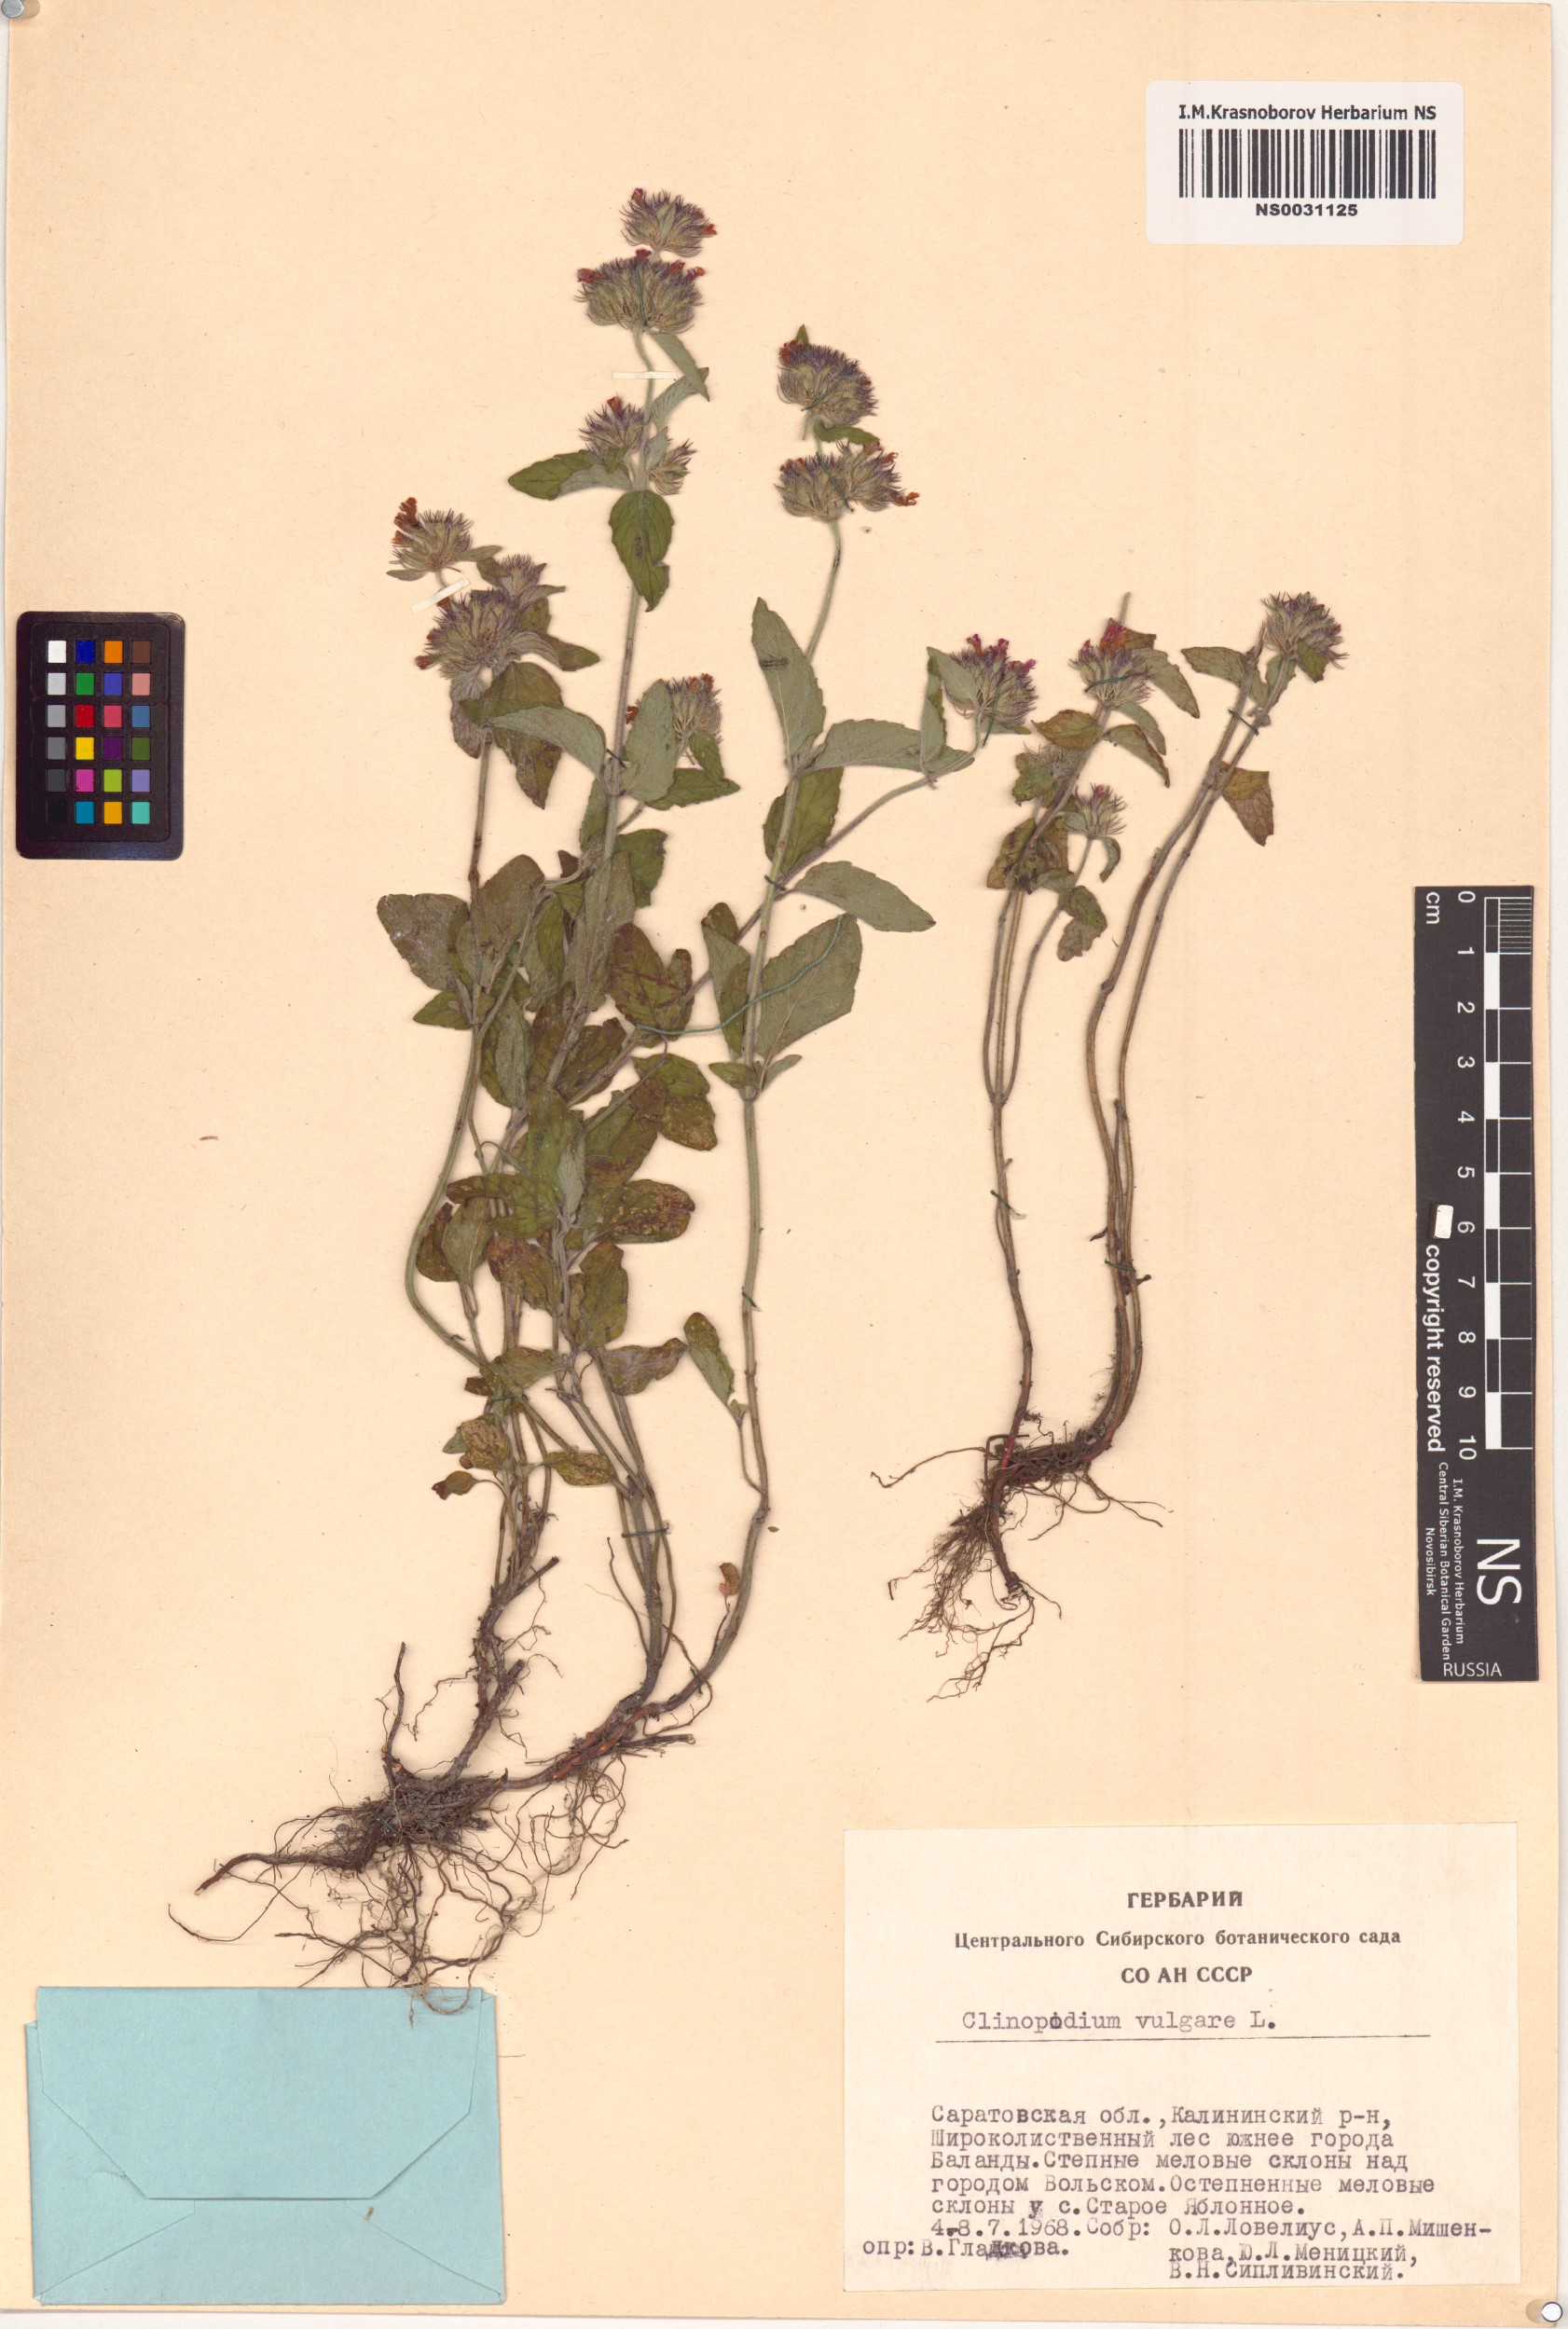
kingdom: Plantae
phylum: Tracheophyta
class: Magnoliopsida
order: Lamiales
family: Lamiaceae
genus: Clinopodium
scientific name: Clinopodium vulgare
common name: Wild basil
